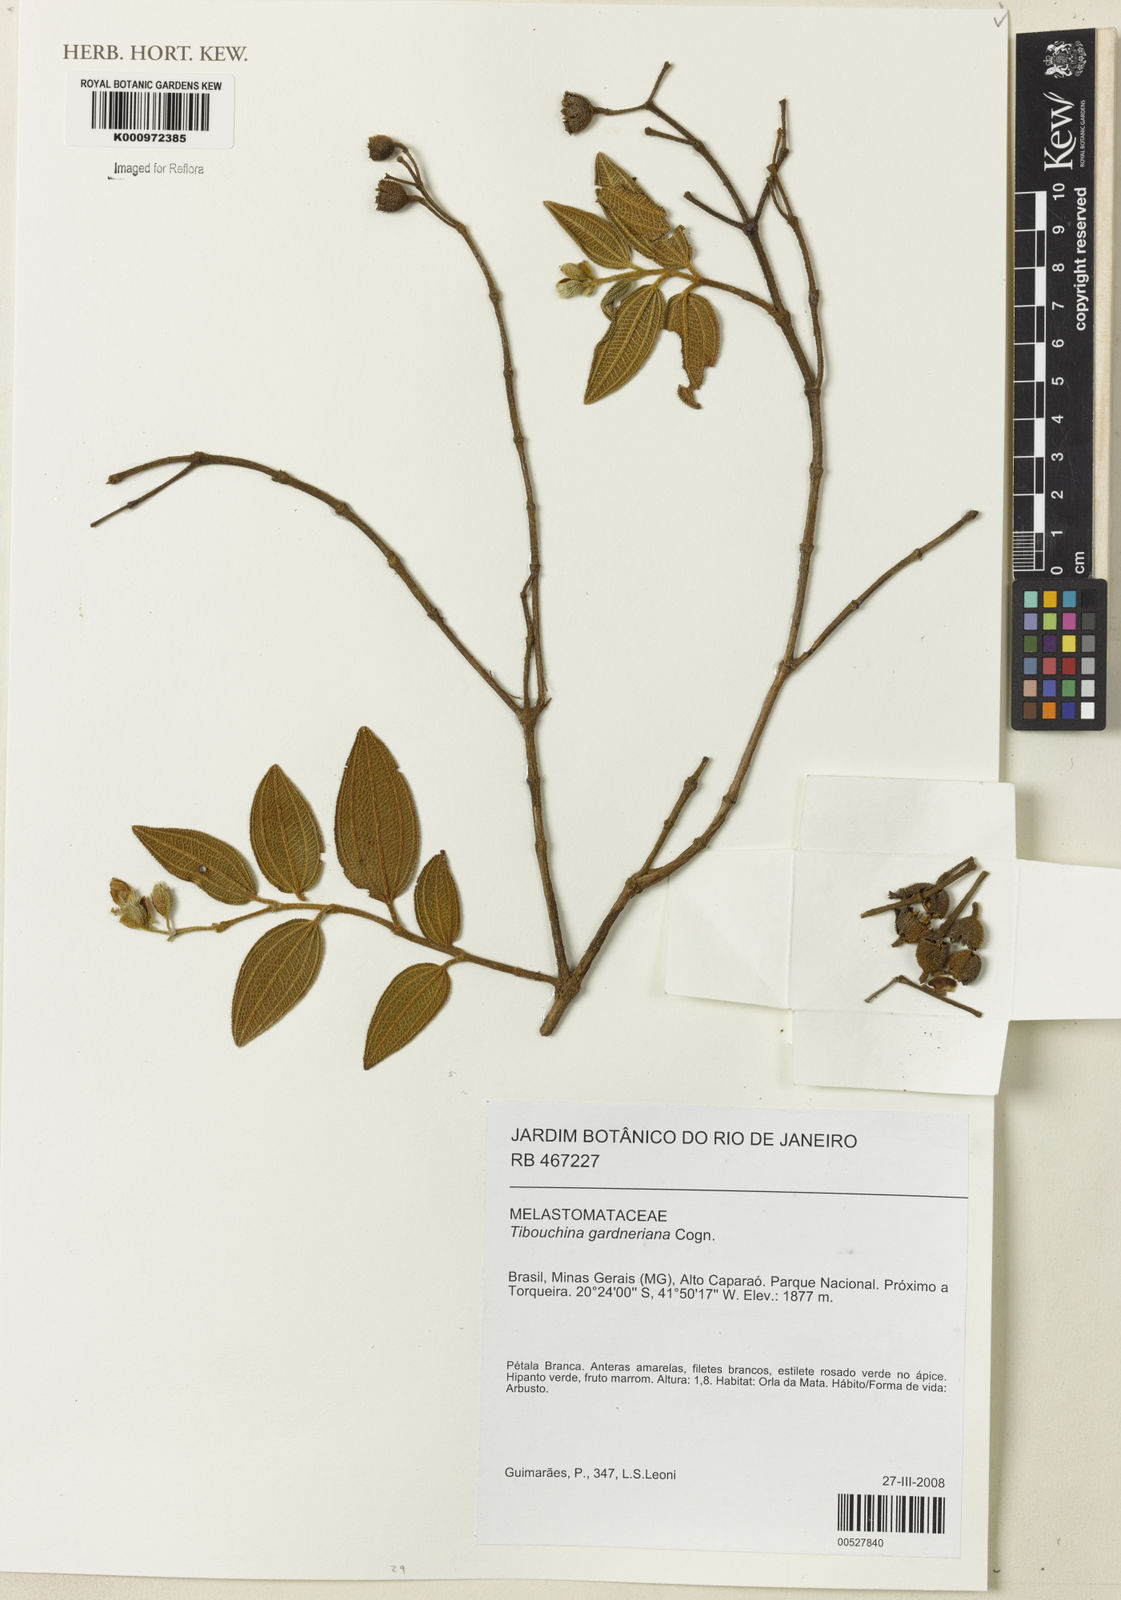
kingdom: Plantae
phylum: Tracheophyta
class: Magnoliopsida
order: Myrtales
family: Melastomataceae
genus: Pleroma
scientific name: Pleroma echinatum
